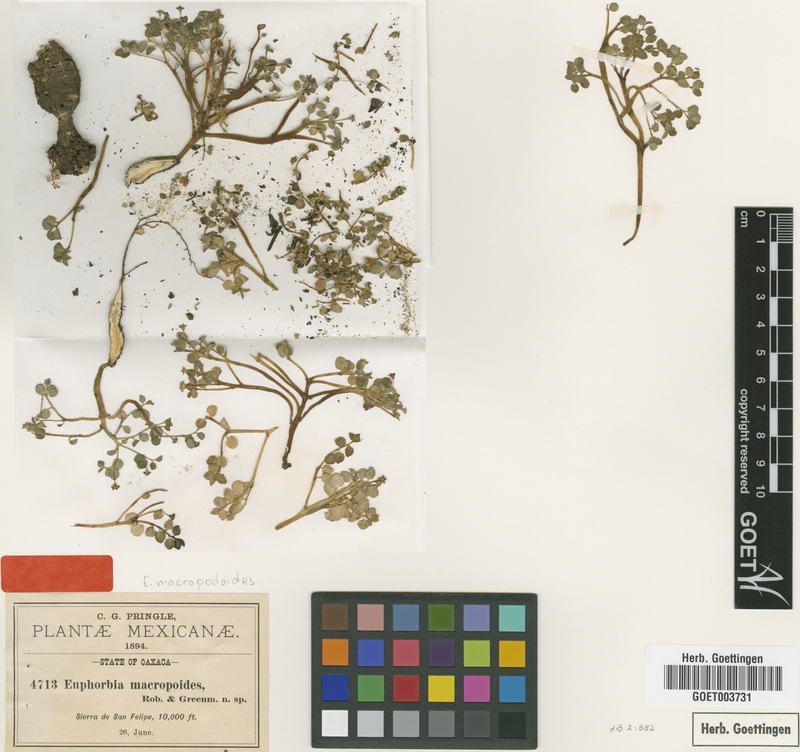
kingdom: Plantae
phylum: Tracheophyta
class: Magnoliopsida
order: Malpighiales
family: Euphorbiaceae
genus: Euphorbia
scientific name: Euphorbia macropodoides
